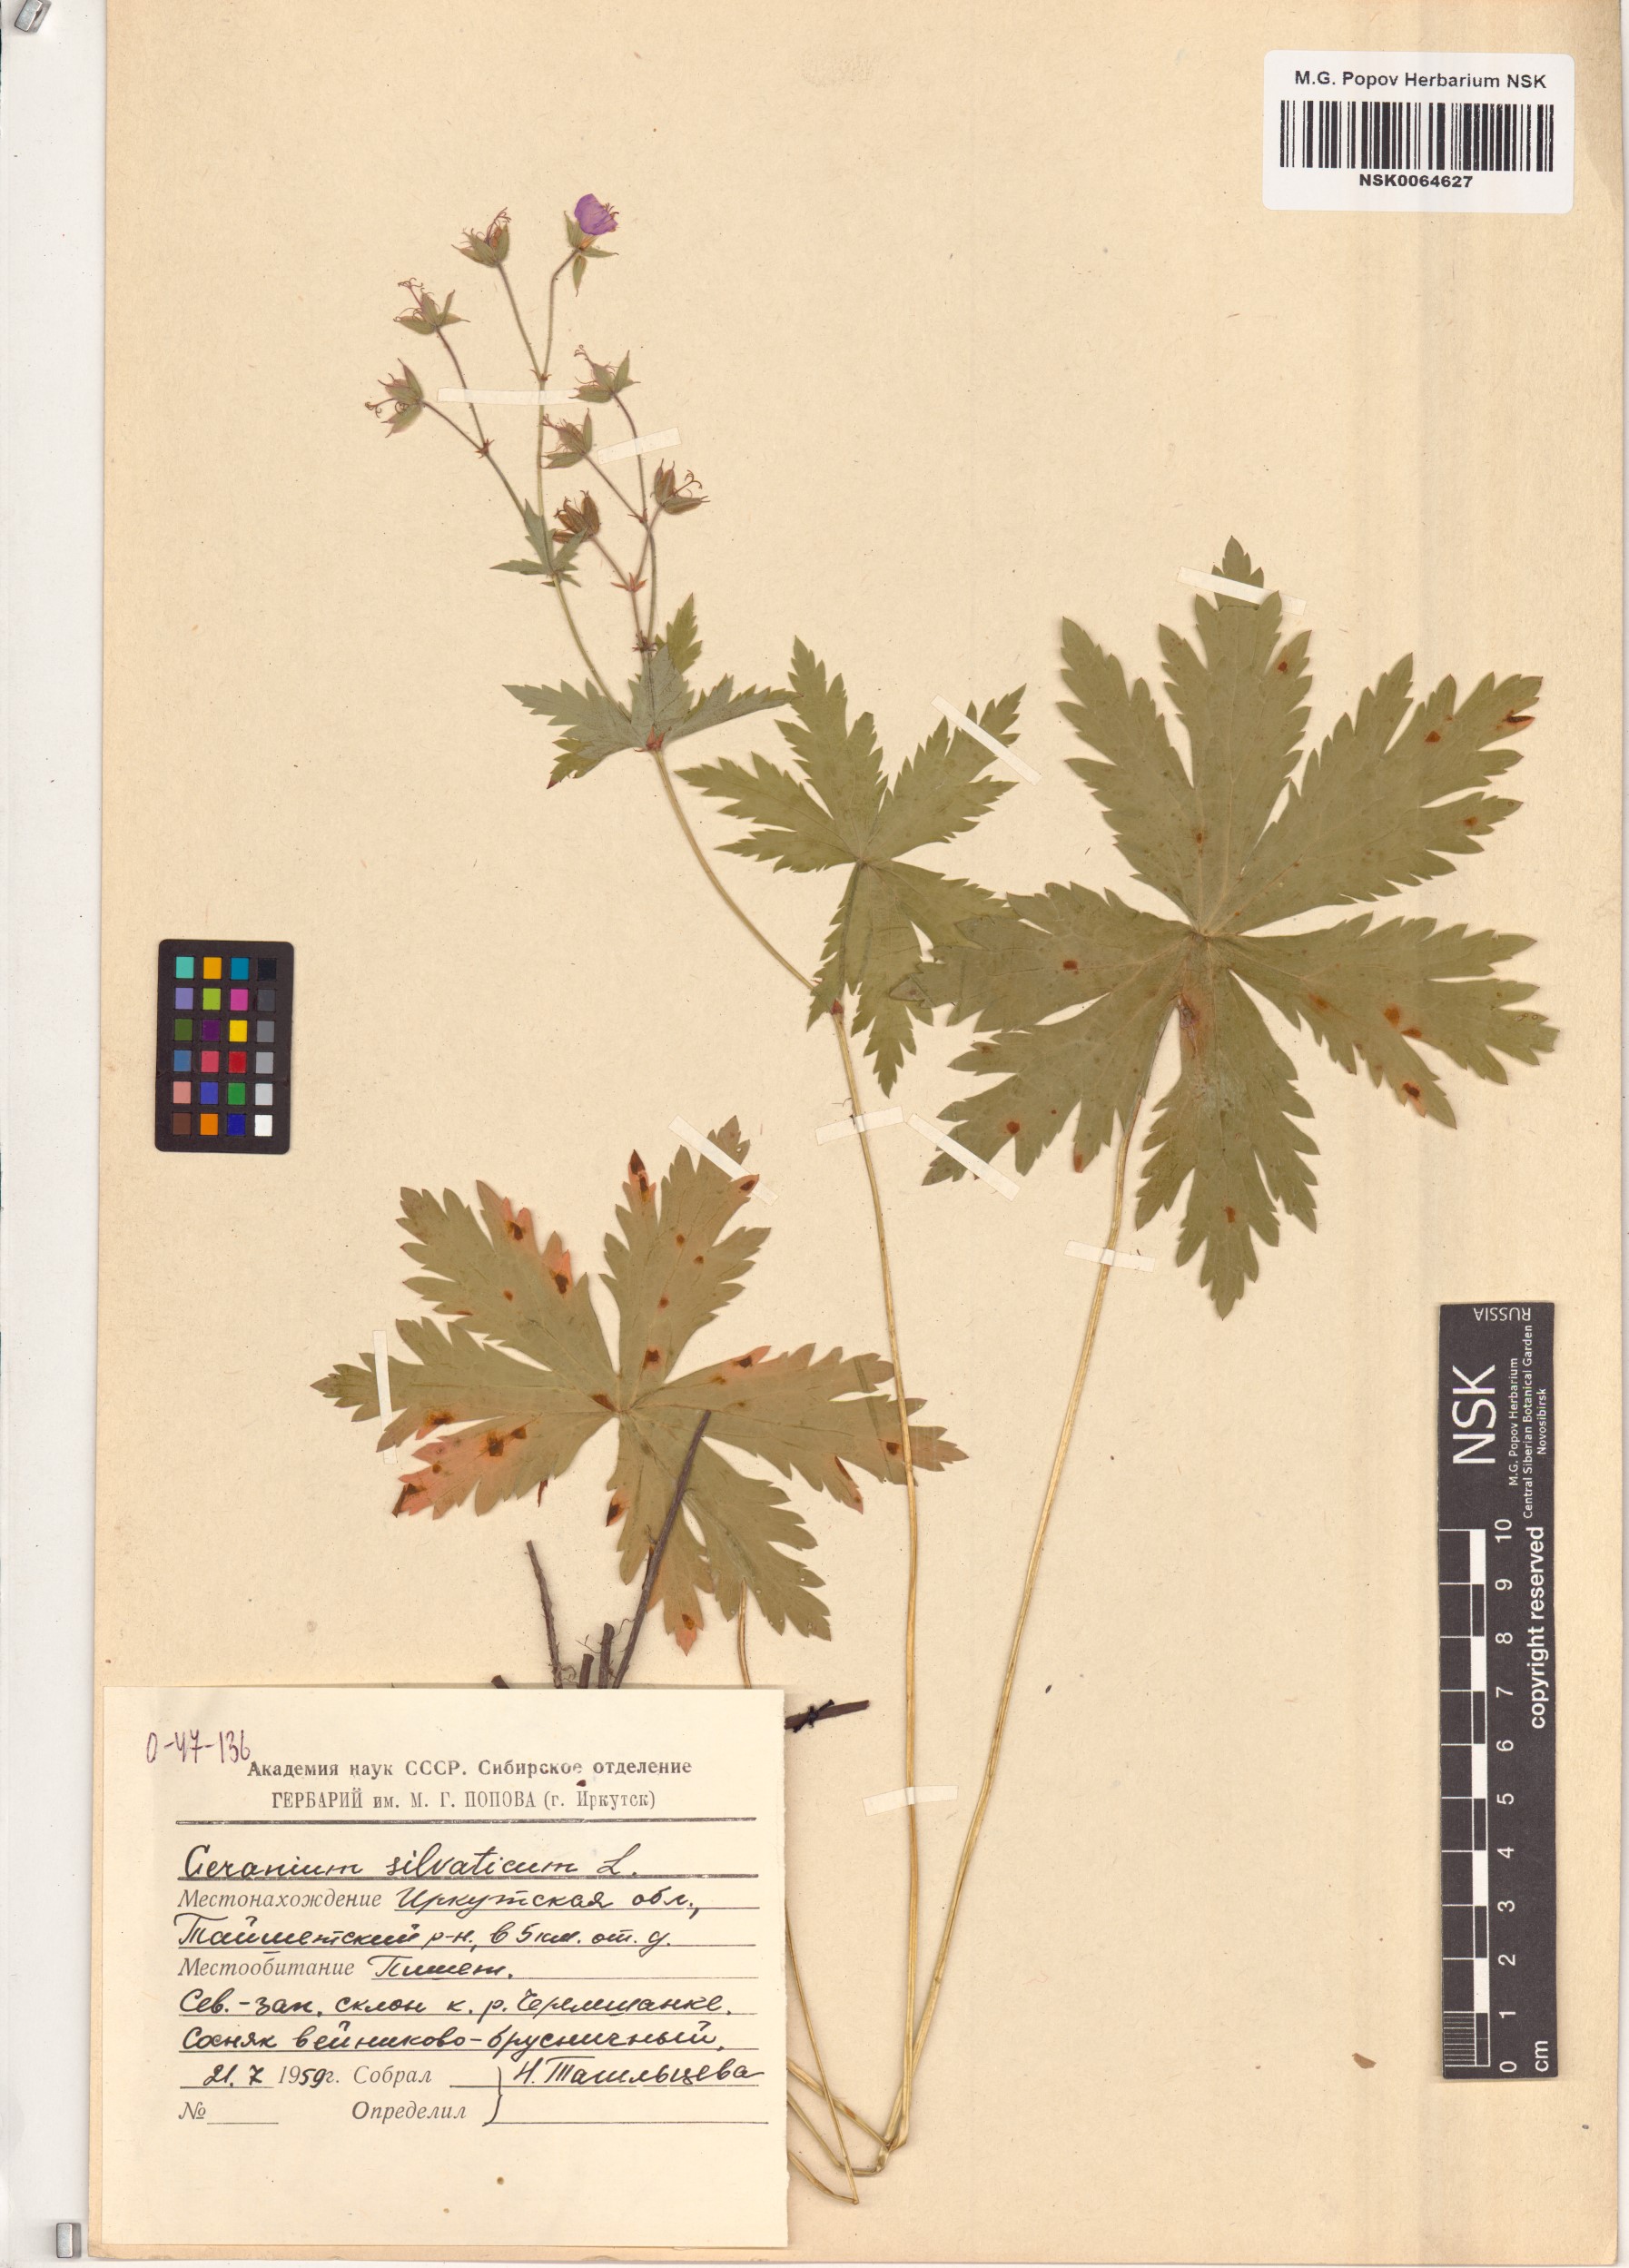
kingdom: Plantae
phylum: Tracheophyta
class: Magnoliopsida
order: Geraniales
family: Geraniaceae
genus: Geranium
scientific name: Geranium sylvaticum
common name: Wood crane's-bill
